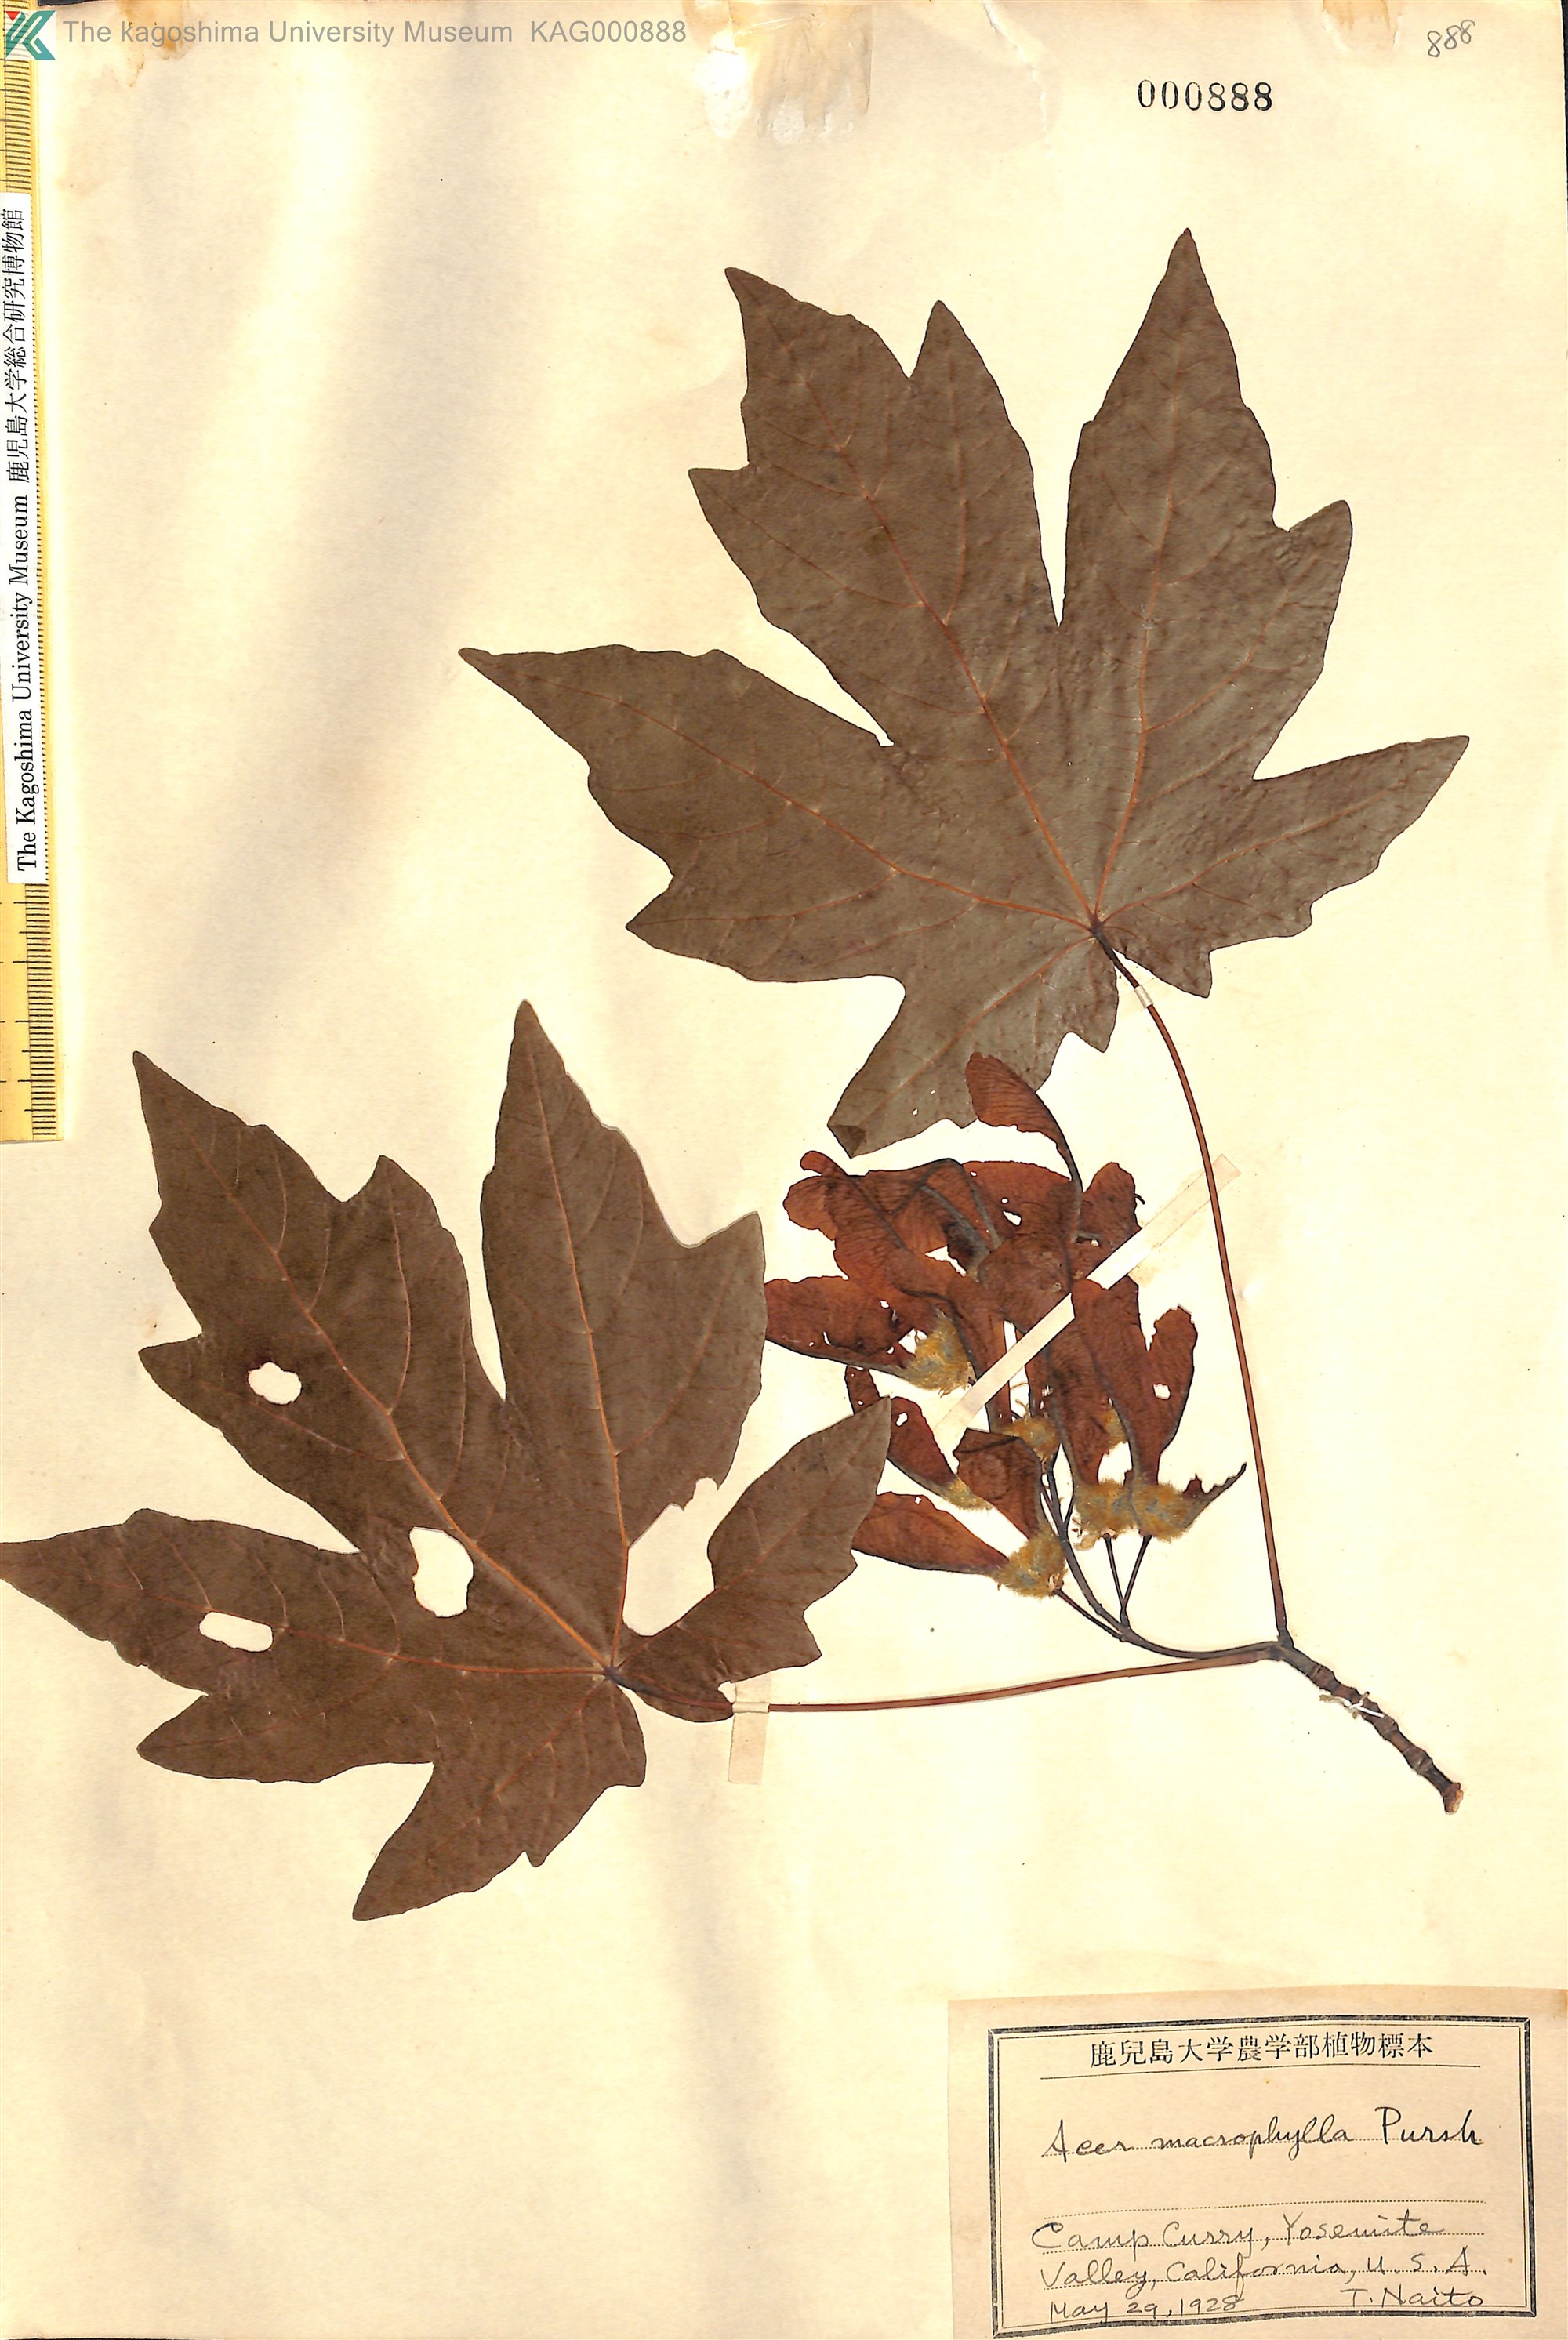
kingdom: Plantae
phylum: Tracheophyta
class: Magnoliopsida
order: Sapindales
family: Sapindaceae
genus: Acer
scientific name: Acer macrophyllum
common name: Oregon maple
